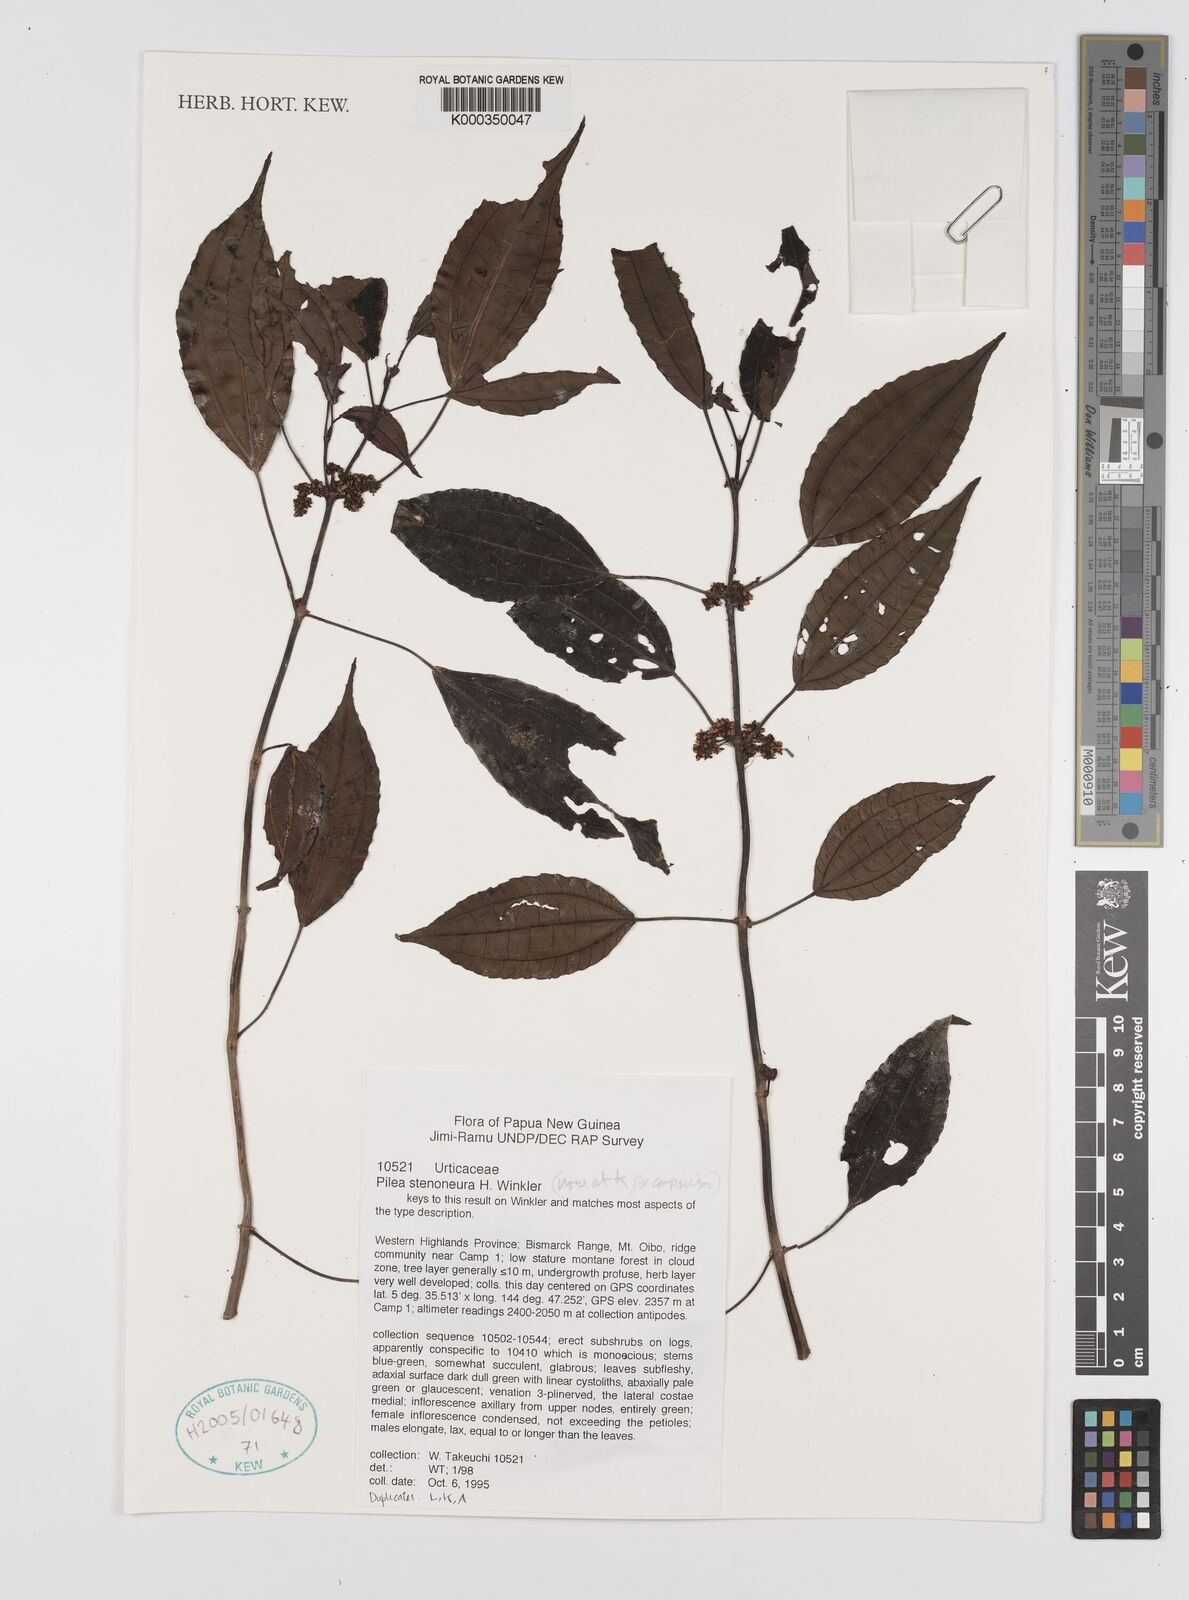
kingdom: Plantae
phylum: Tracheophyta
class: Magnoliopsida
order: Rosales
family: Urticaceae
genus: Pilea
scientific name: Pilea
